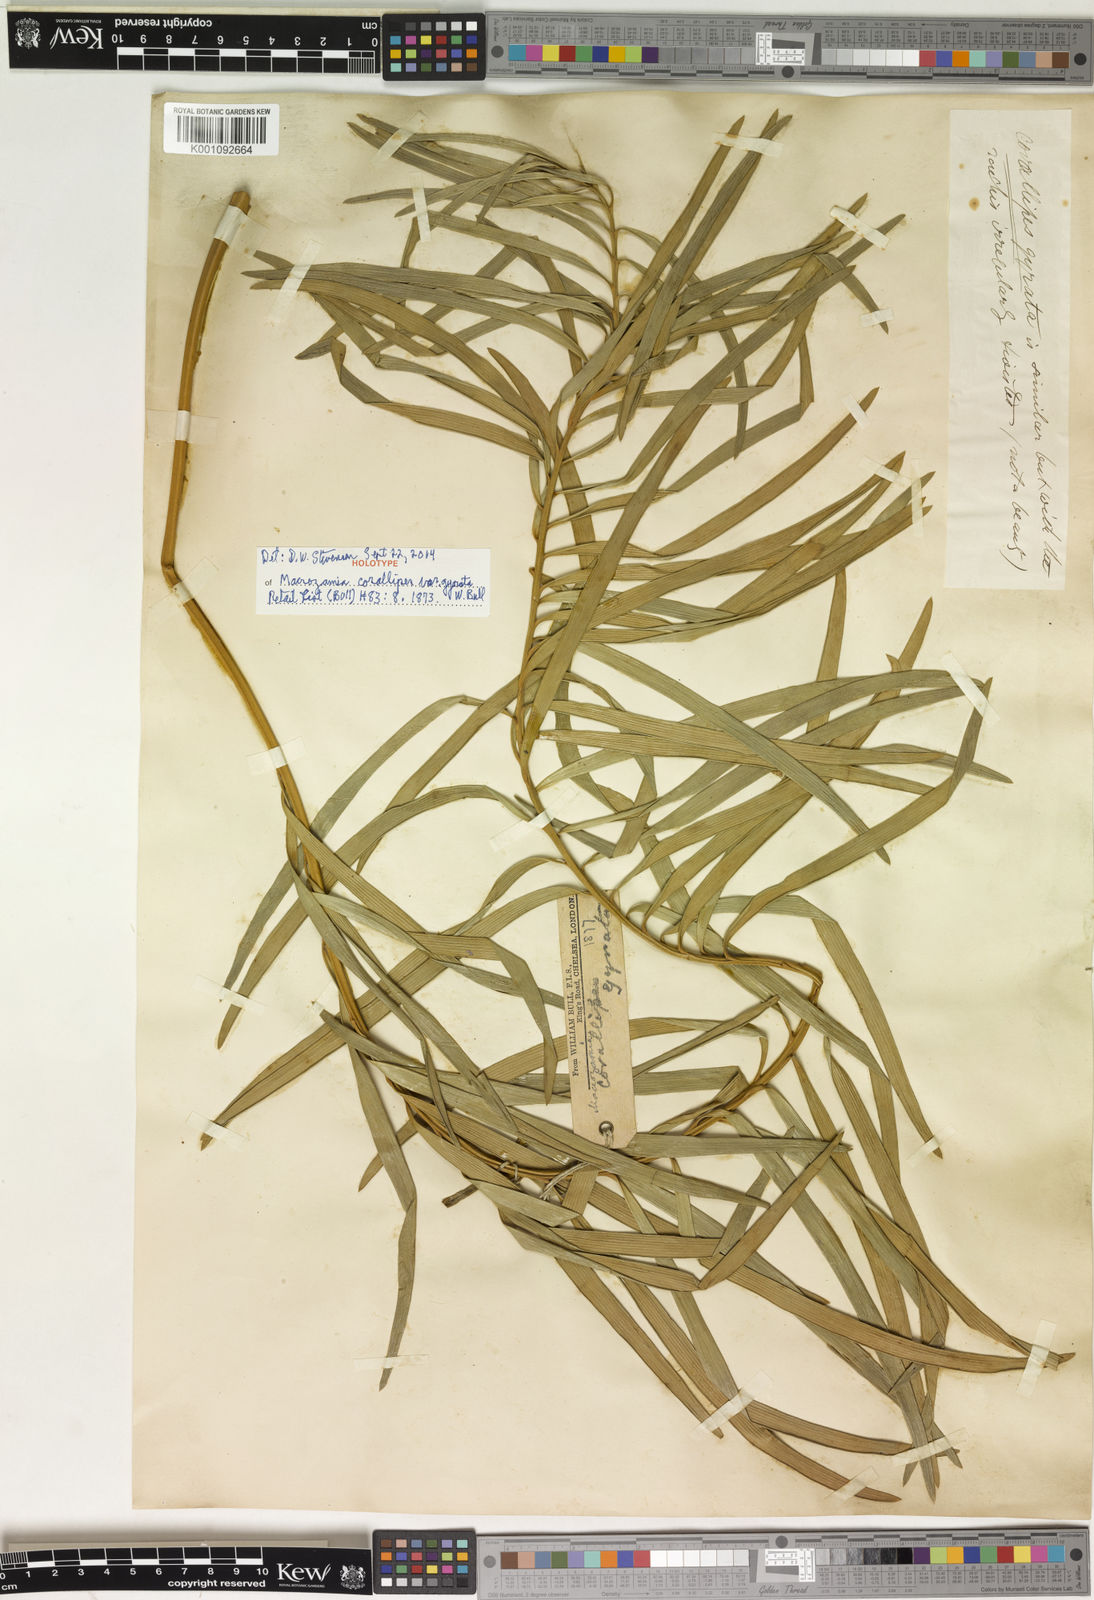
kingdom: Plantae
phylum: Tracheophyta
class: Cycadopsida
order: Cycadales
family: Zamiaceae
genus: Macrozamia
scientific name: Macrozamia miquelii
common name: Wild pineapple
